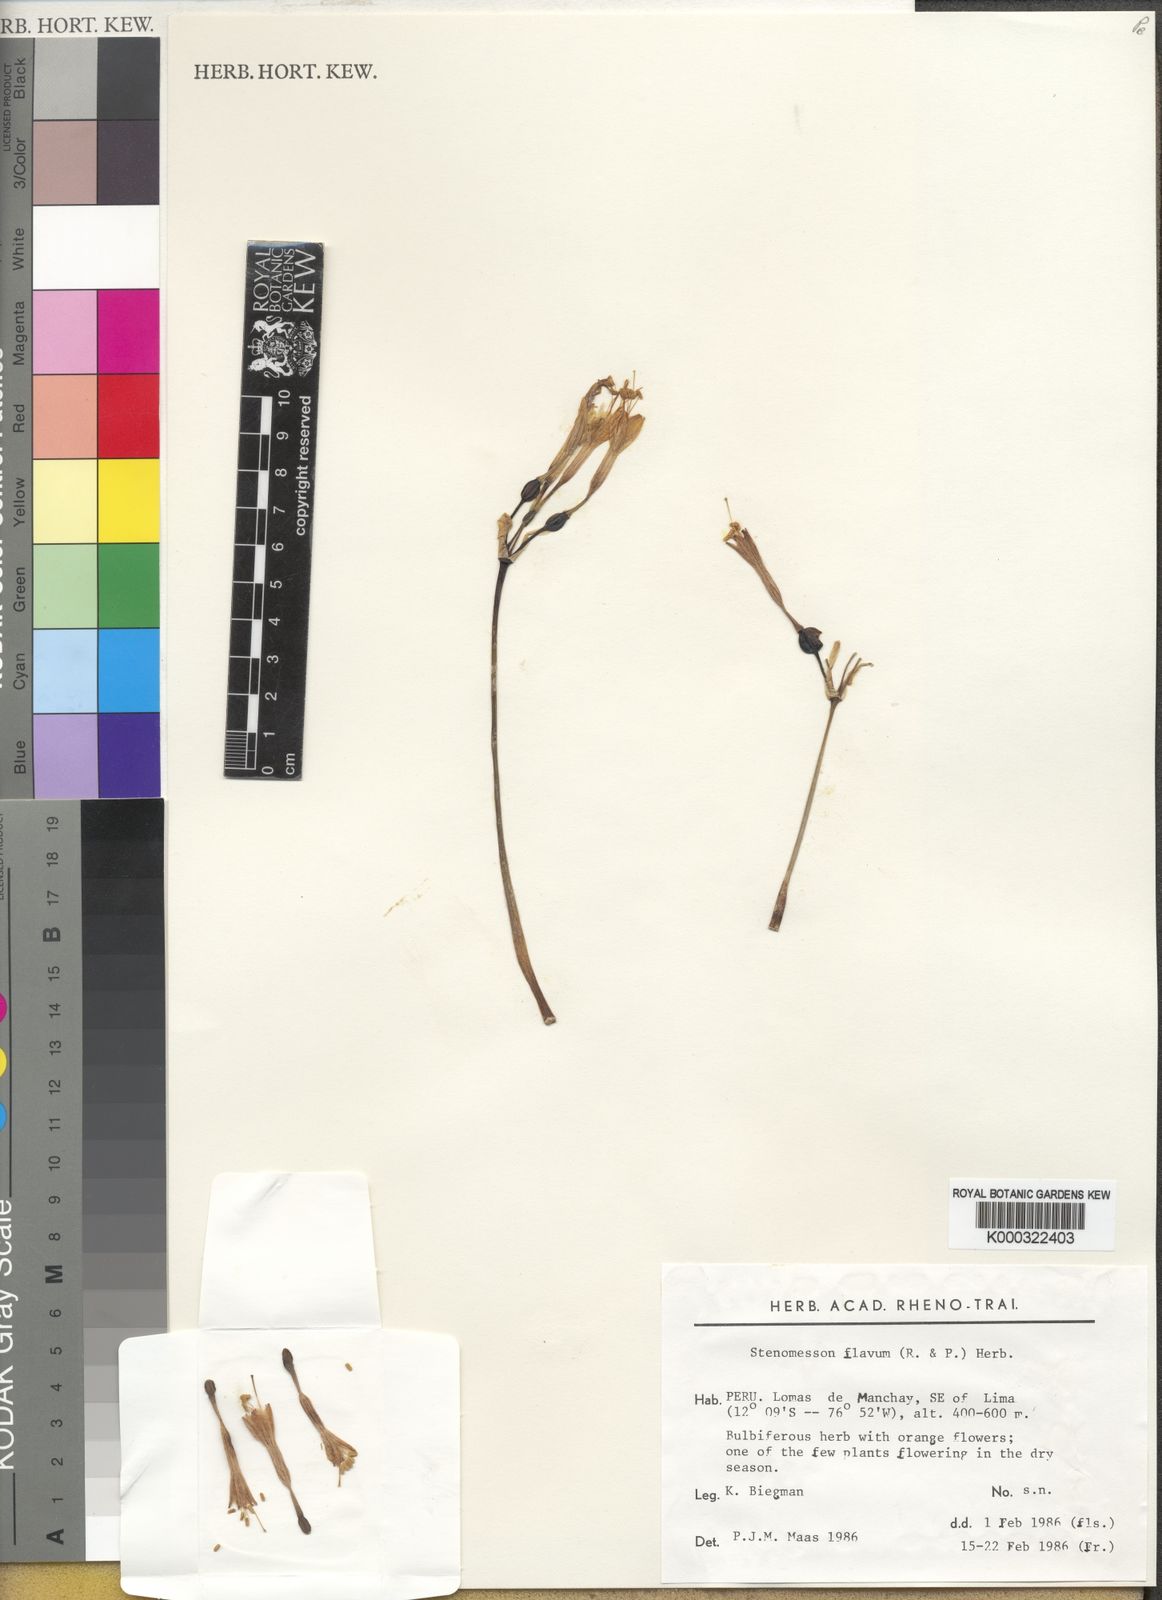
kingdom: Plantae
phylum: Tracheophyta
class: Liliopsida
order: Asparagales
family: Amaryllidaceae
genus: Stenomesson
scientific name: Stenomesson
